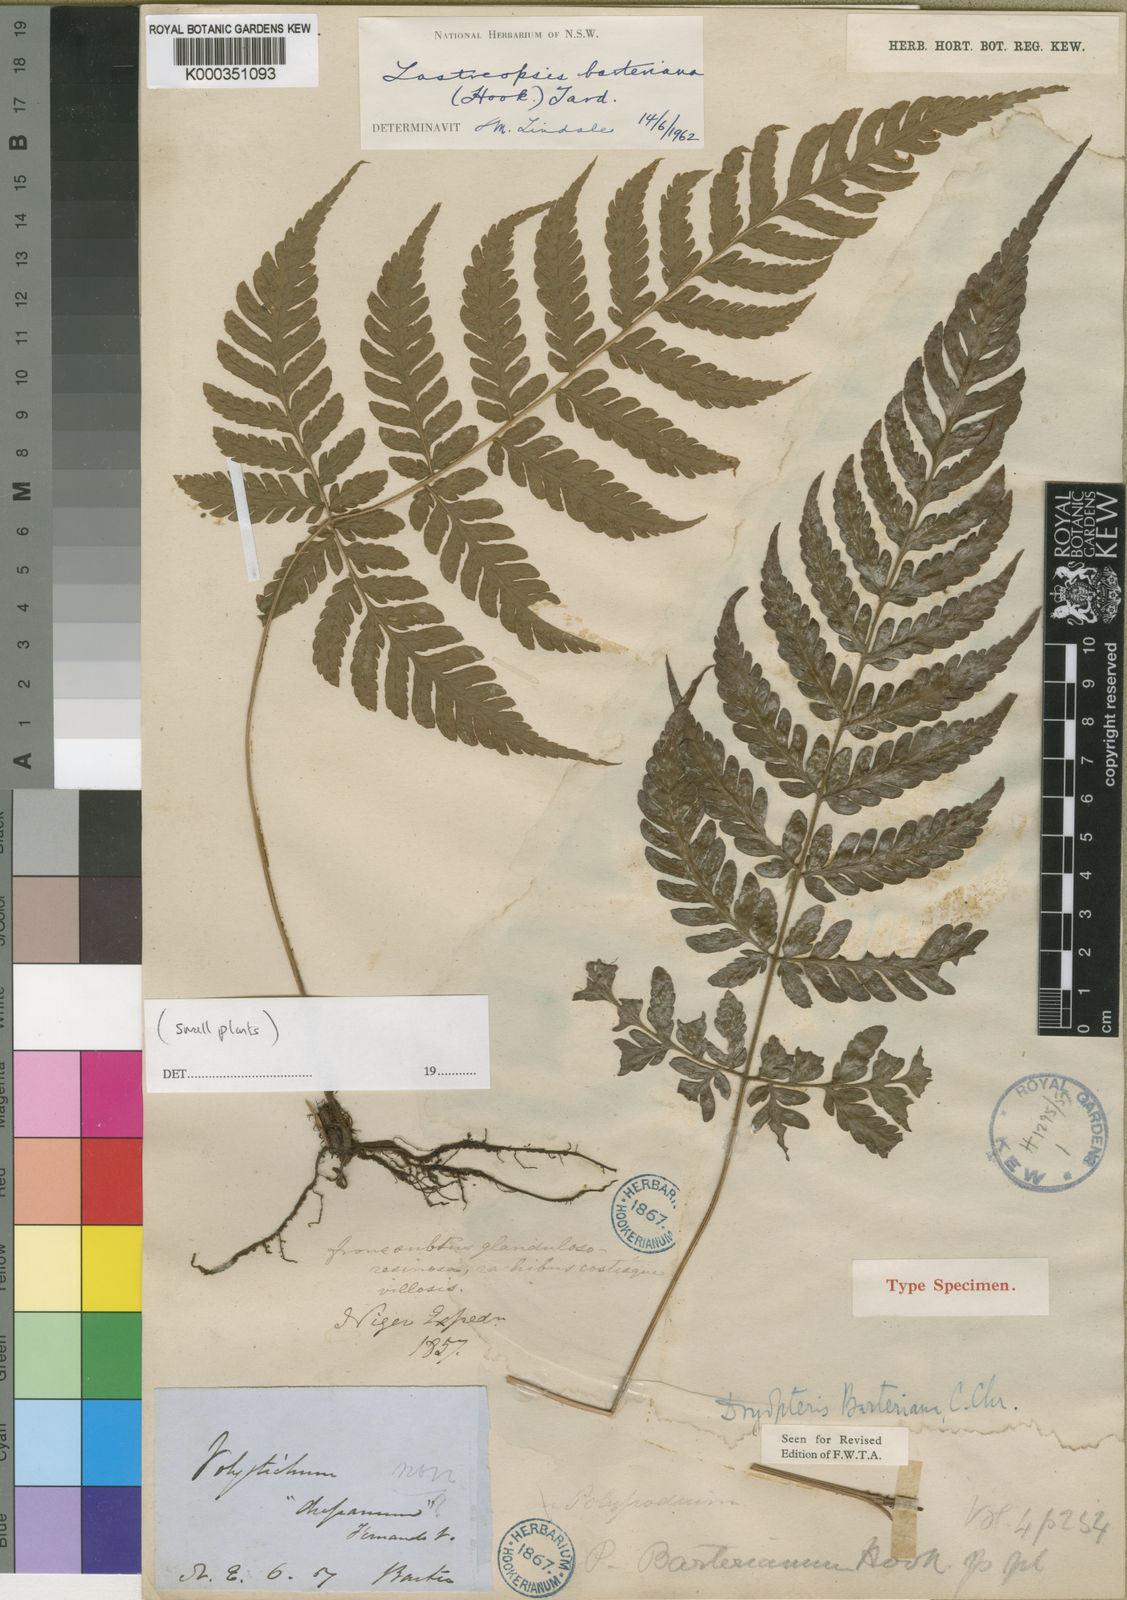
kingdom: Plantae
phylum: Tracheophyta
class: Polypodiopsida
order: Polypodiales
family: Dryopteridaceae
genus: Parapolystichum
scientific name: Parapolystichum barterianum
